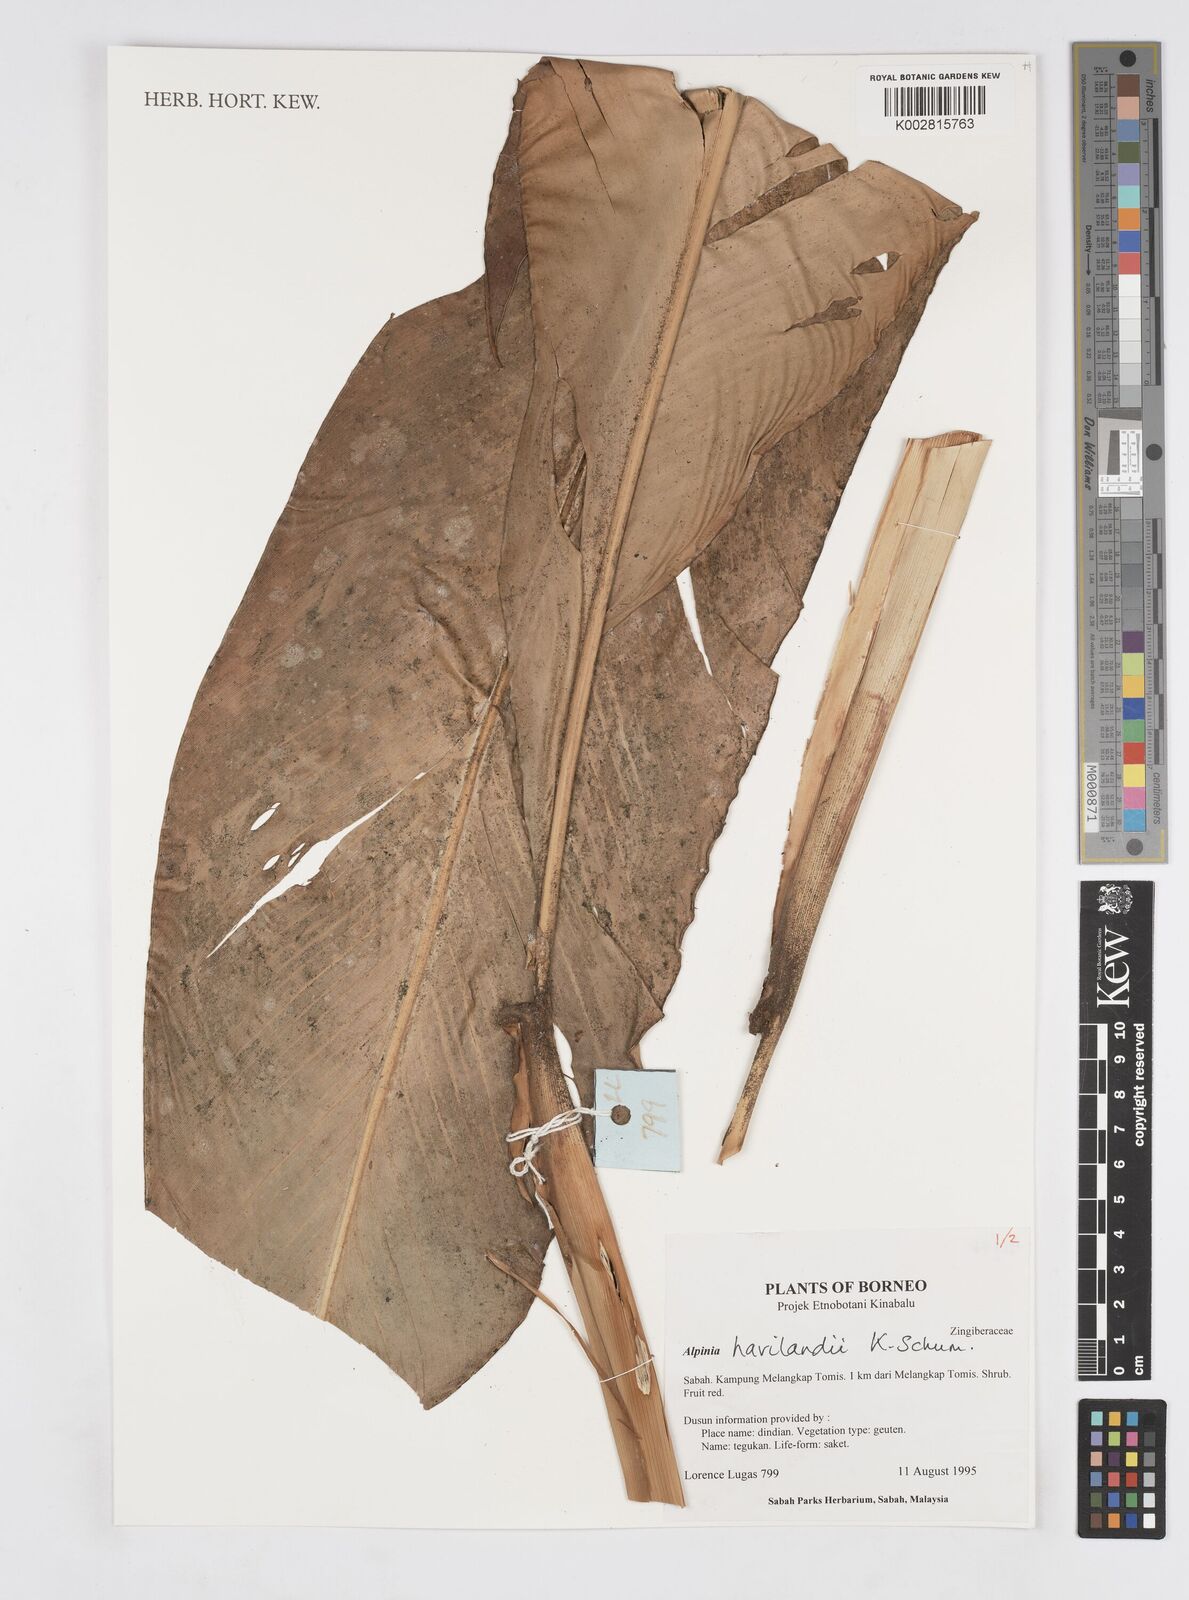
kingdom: Plantae
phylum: Tracheophyta
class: Liliopsida
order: Zingiberales
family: Zingiberaceae
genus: Alpinia
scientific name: Alpinia havilandii
